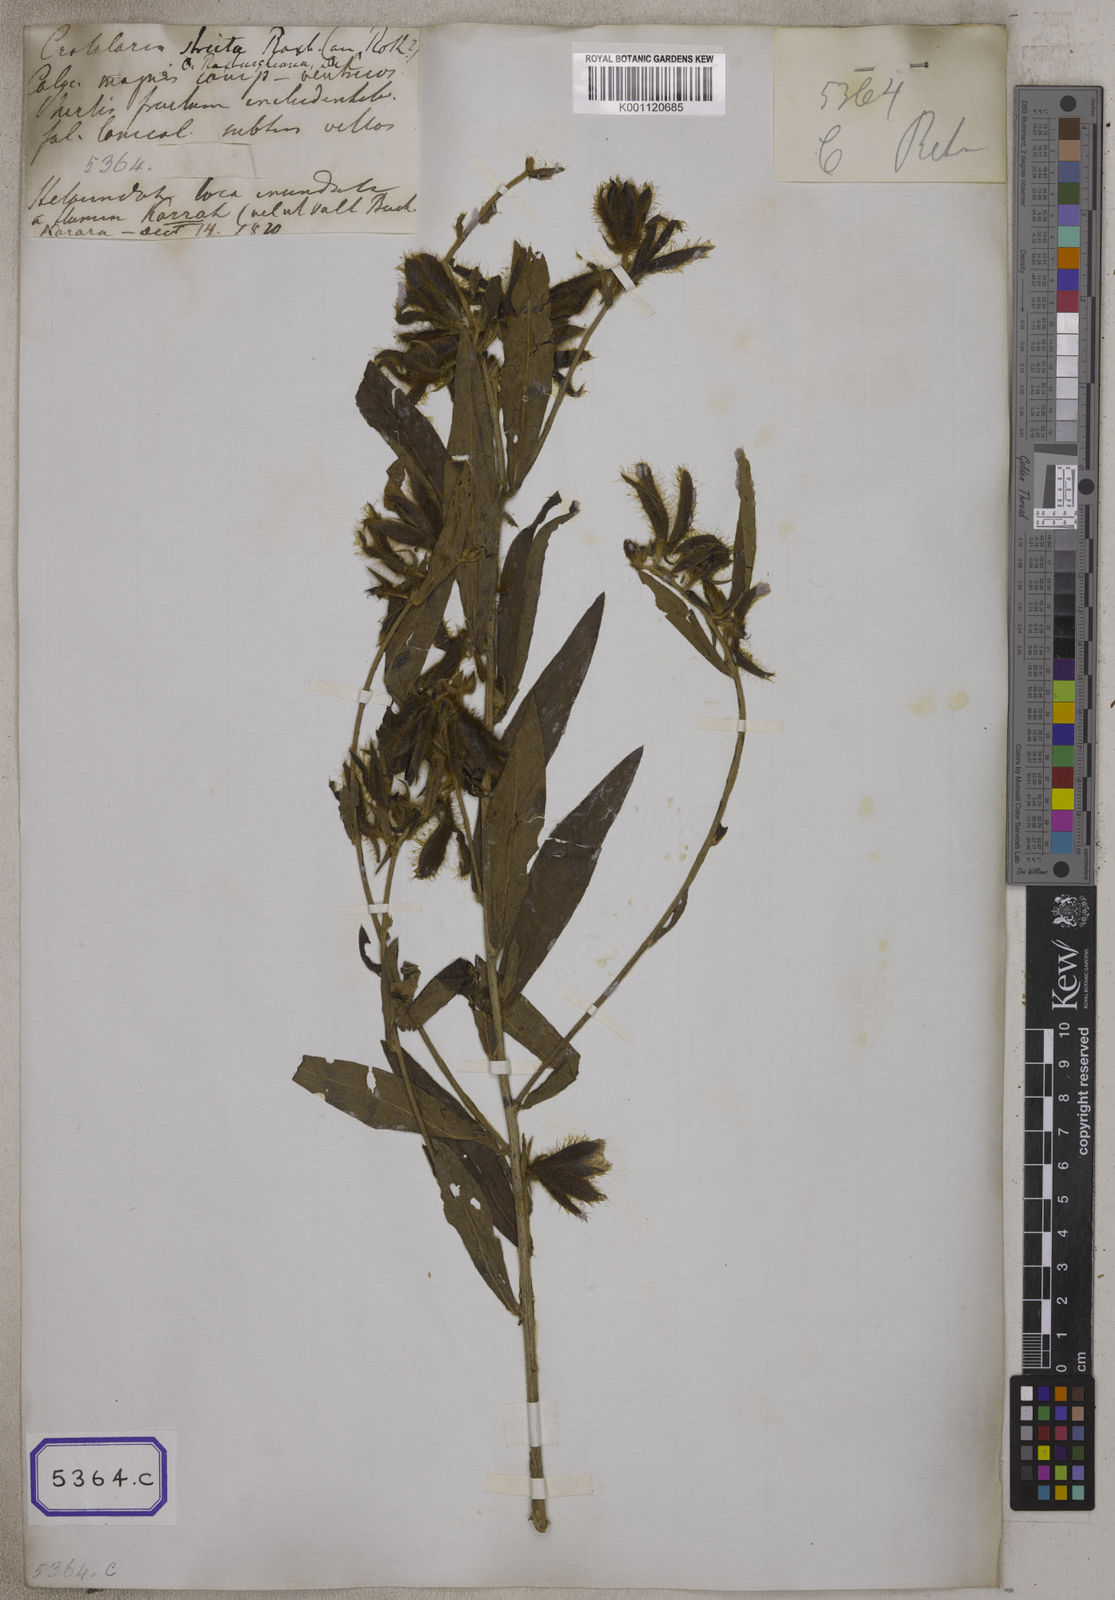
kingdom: Plantae
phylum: Tracheophyta
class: Magnoliopsida
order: Fabales
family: Fabaceae
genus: Crotalaria
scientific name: Crotalaria calycina
